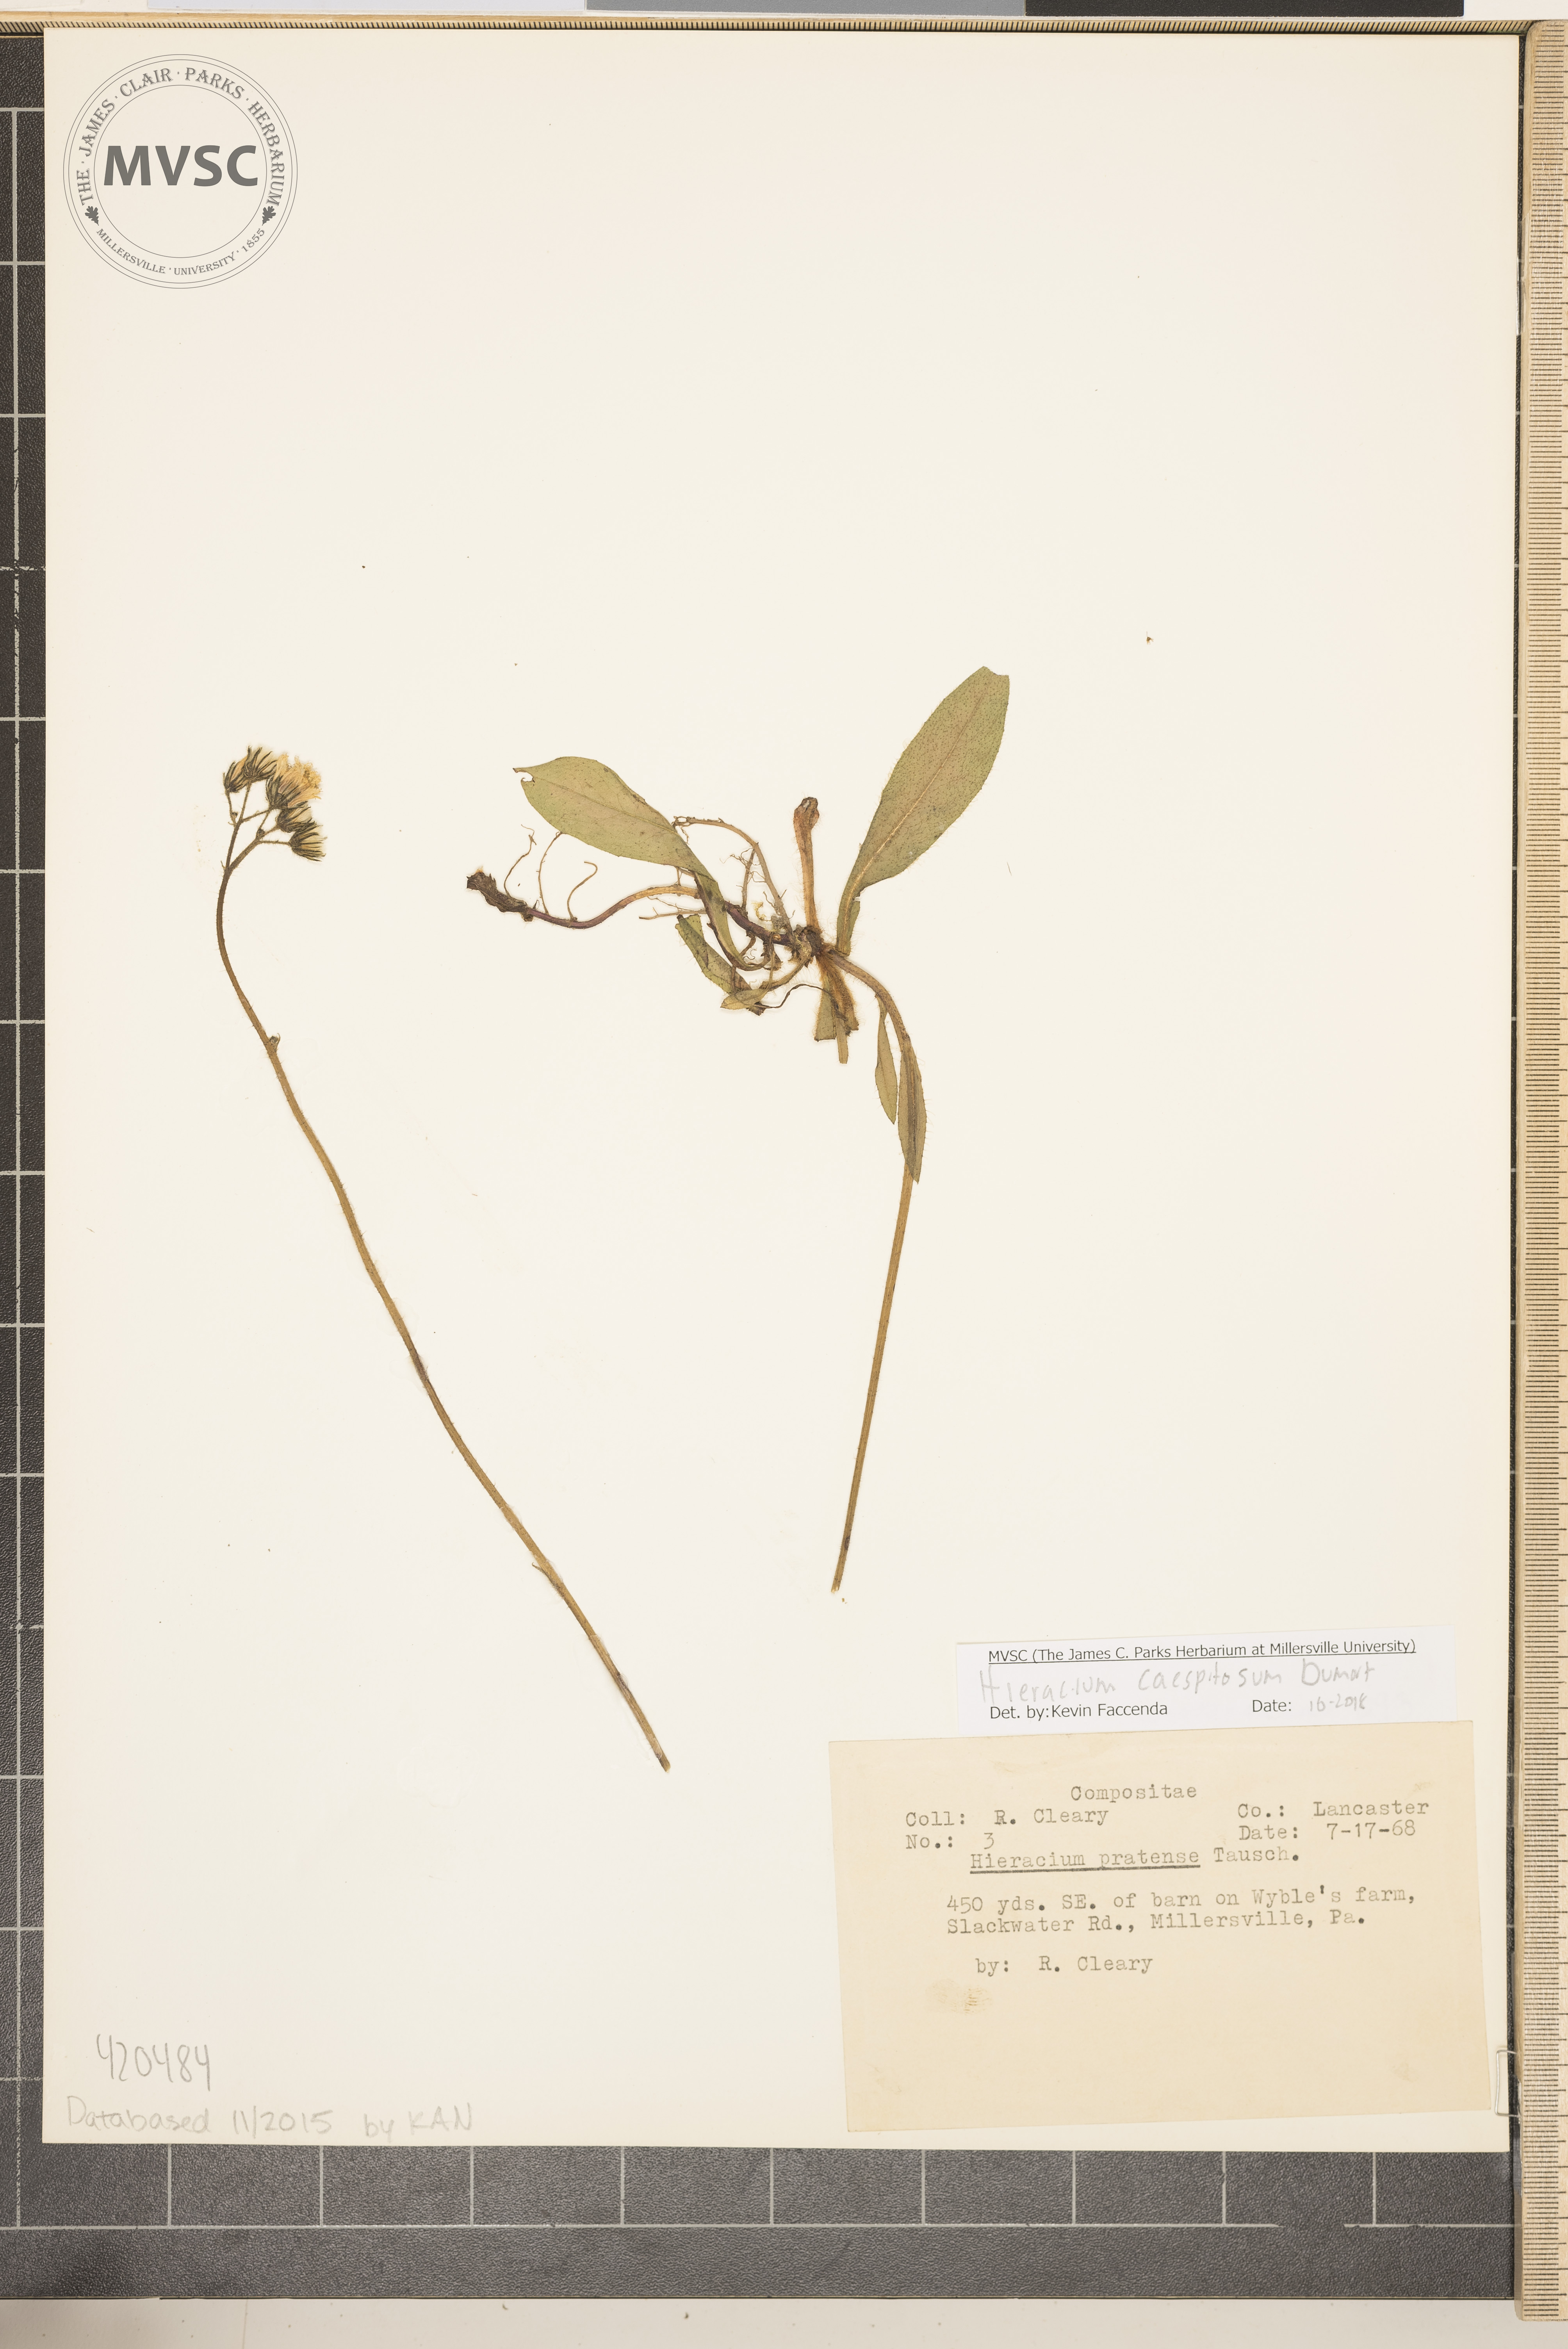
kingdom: Plantae
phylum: Tracheophyta
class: Magnoliopsida
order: Asterales
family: Asteraceae
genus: Pilosella
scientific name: Pilosella caespitosa
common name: Yellow fox-and-cubs
